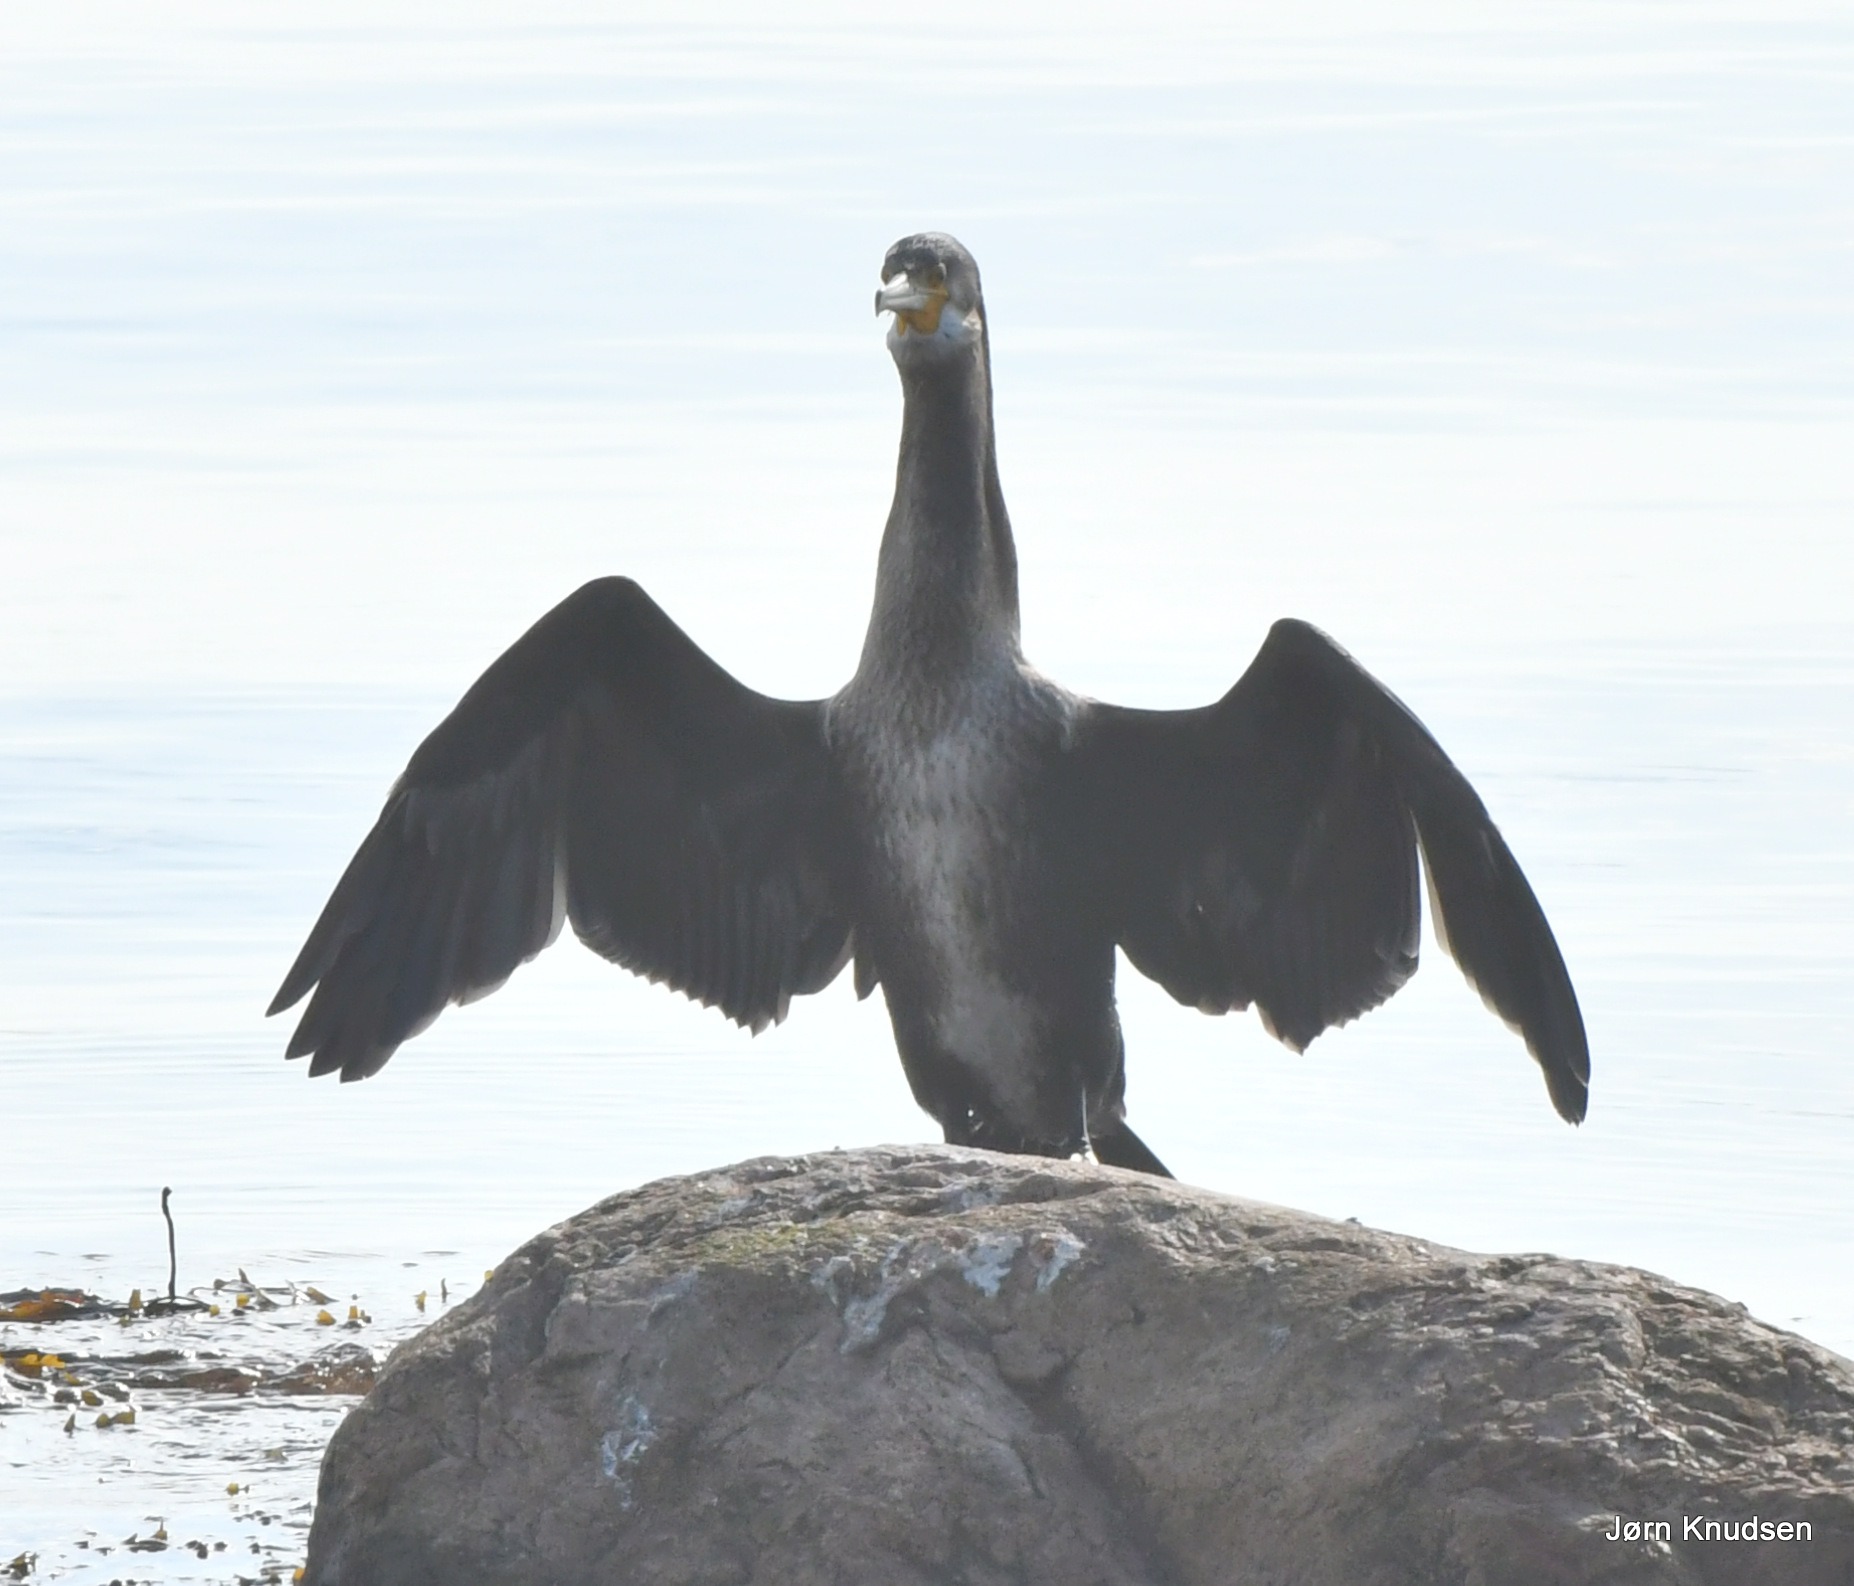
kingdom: Animalia
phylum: Chordata
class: Aves
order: Suliformes
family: Phalacrocoracidae
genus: Phalacrocorax
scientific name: Phalacrocorax carbo
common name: Skarv
